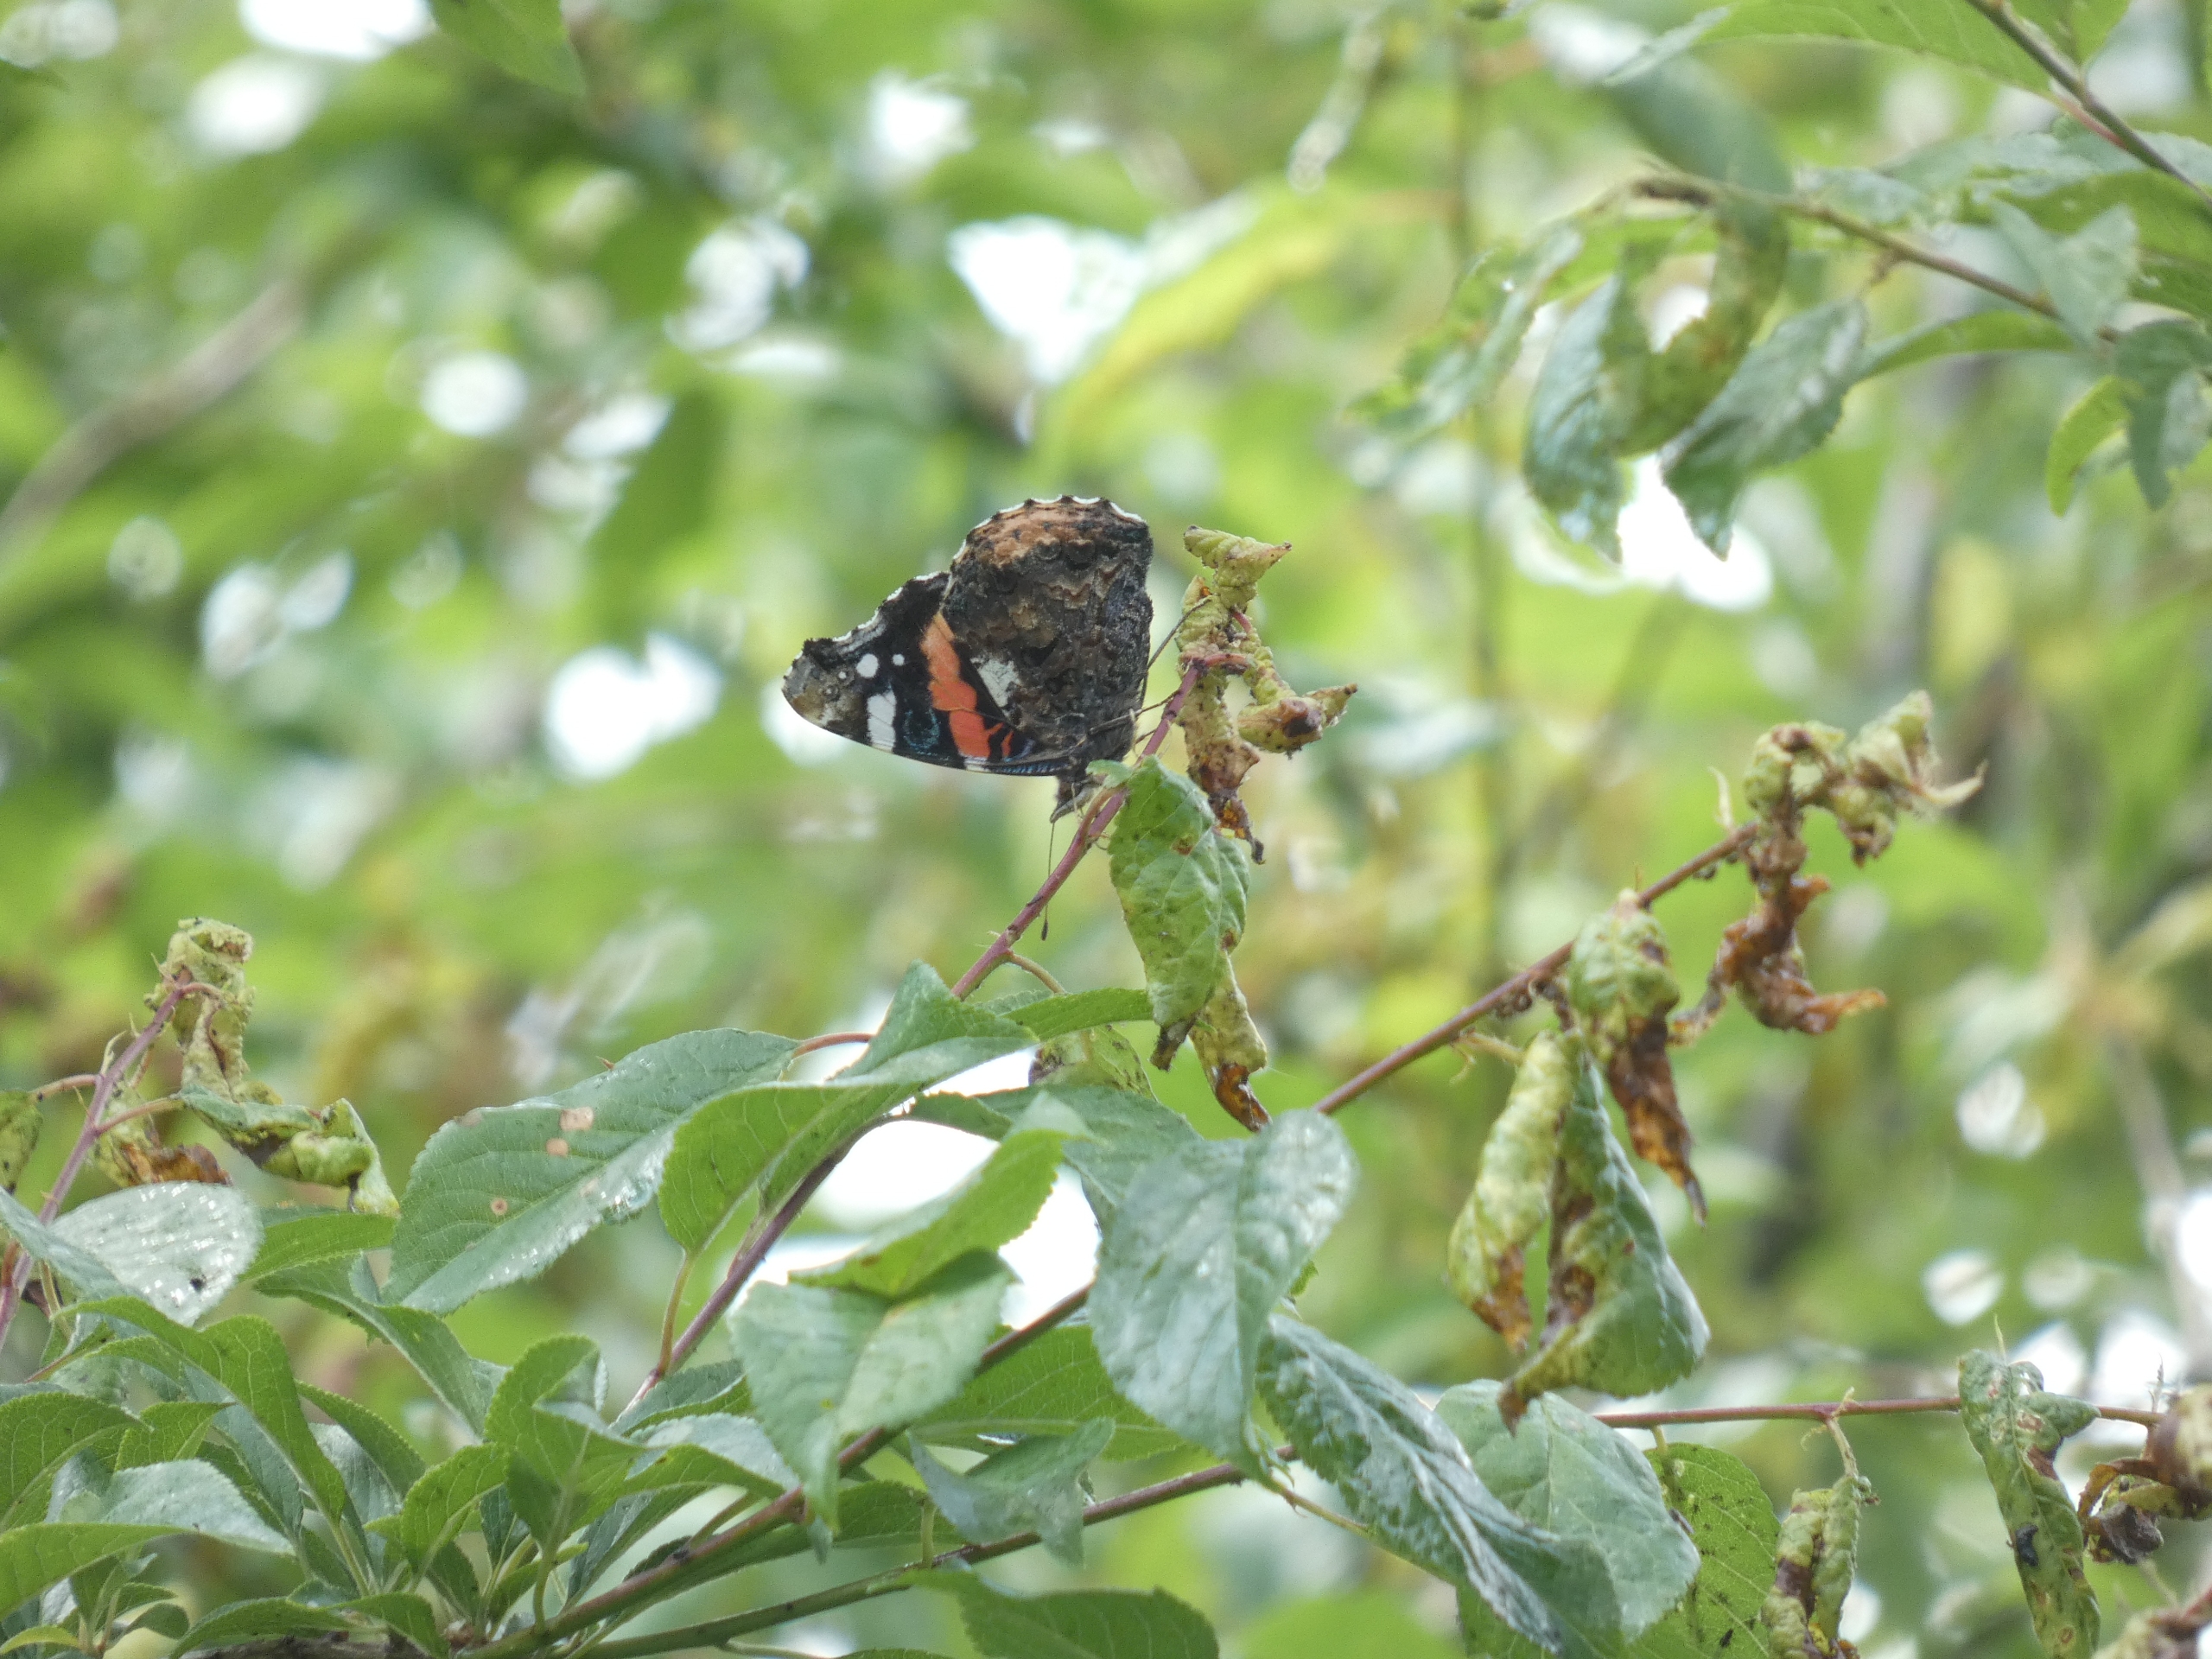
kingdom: Animalia
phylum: Arthropoda
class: Insecta
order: Lepidoptera
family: Nymphalidae
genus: Vanessa
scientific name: Vanessa atalanta
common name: Admiral
